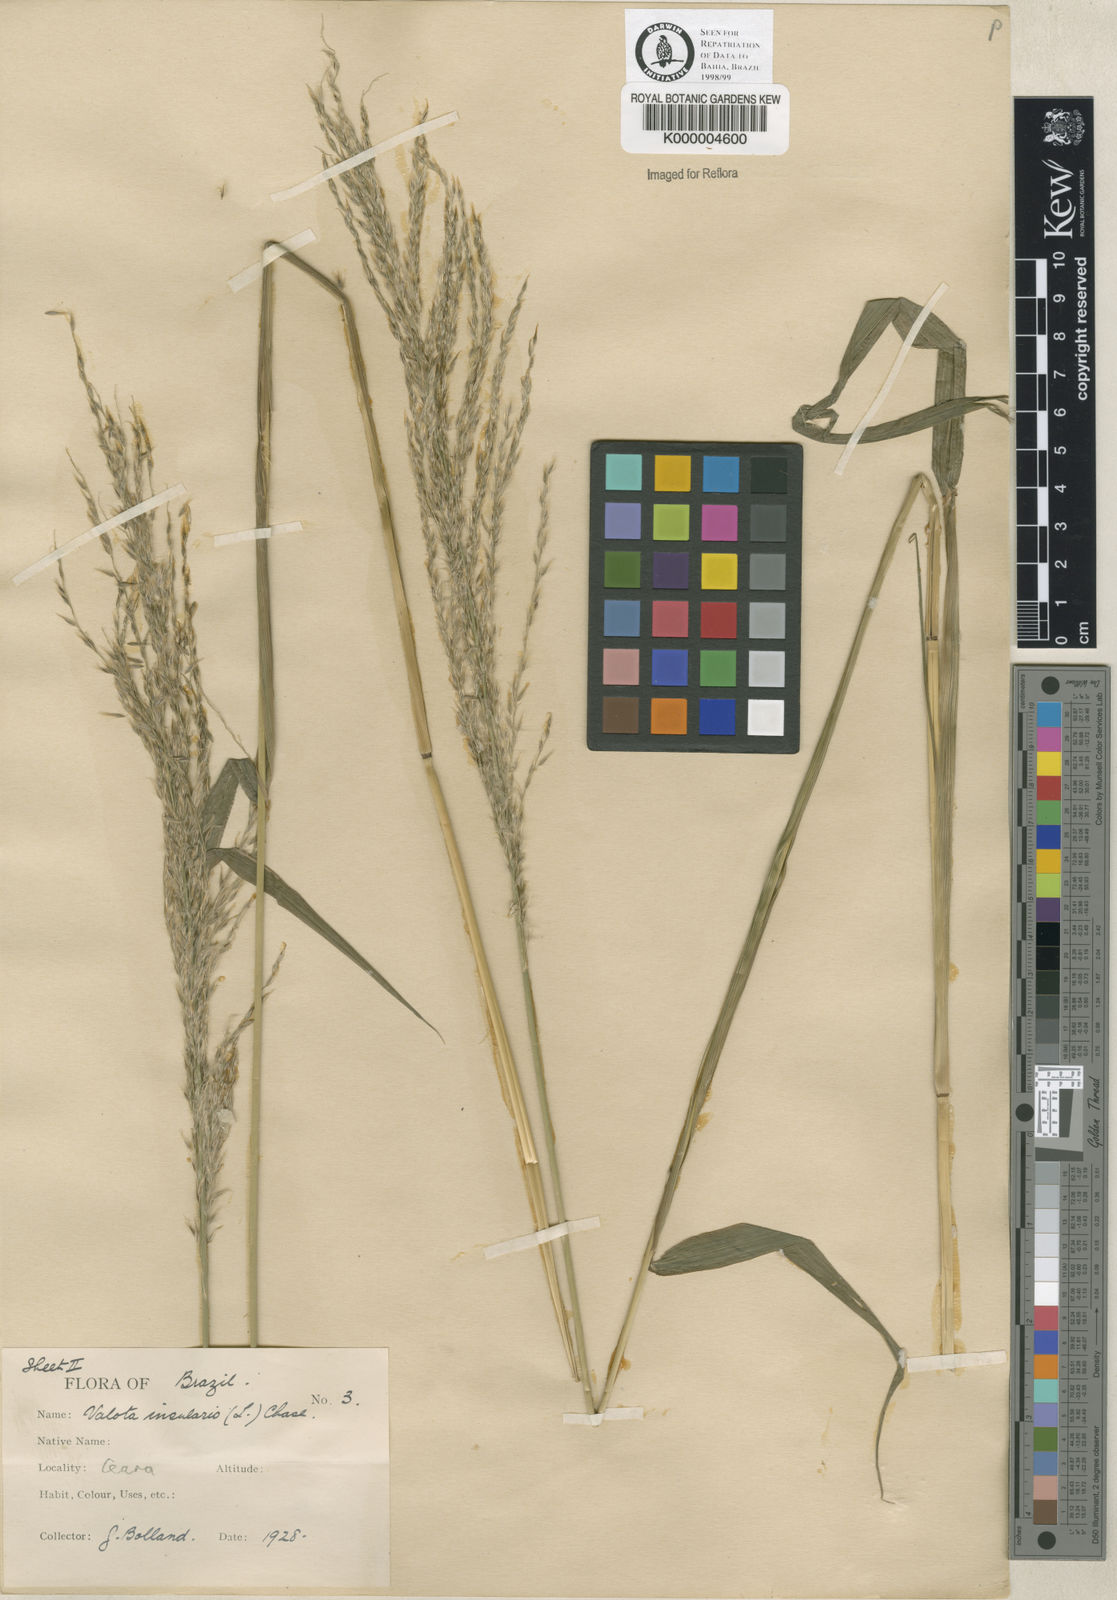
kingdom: Plantae
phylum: Tracheophyta
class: Liliopsida
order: Poales
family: Poaceae
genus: Digitaria
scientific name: Digitaria
